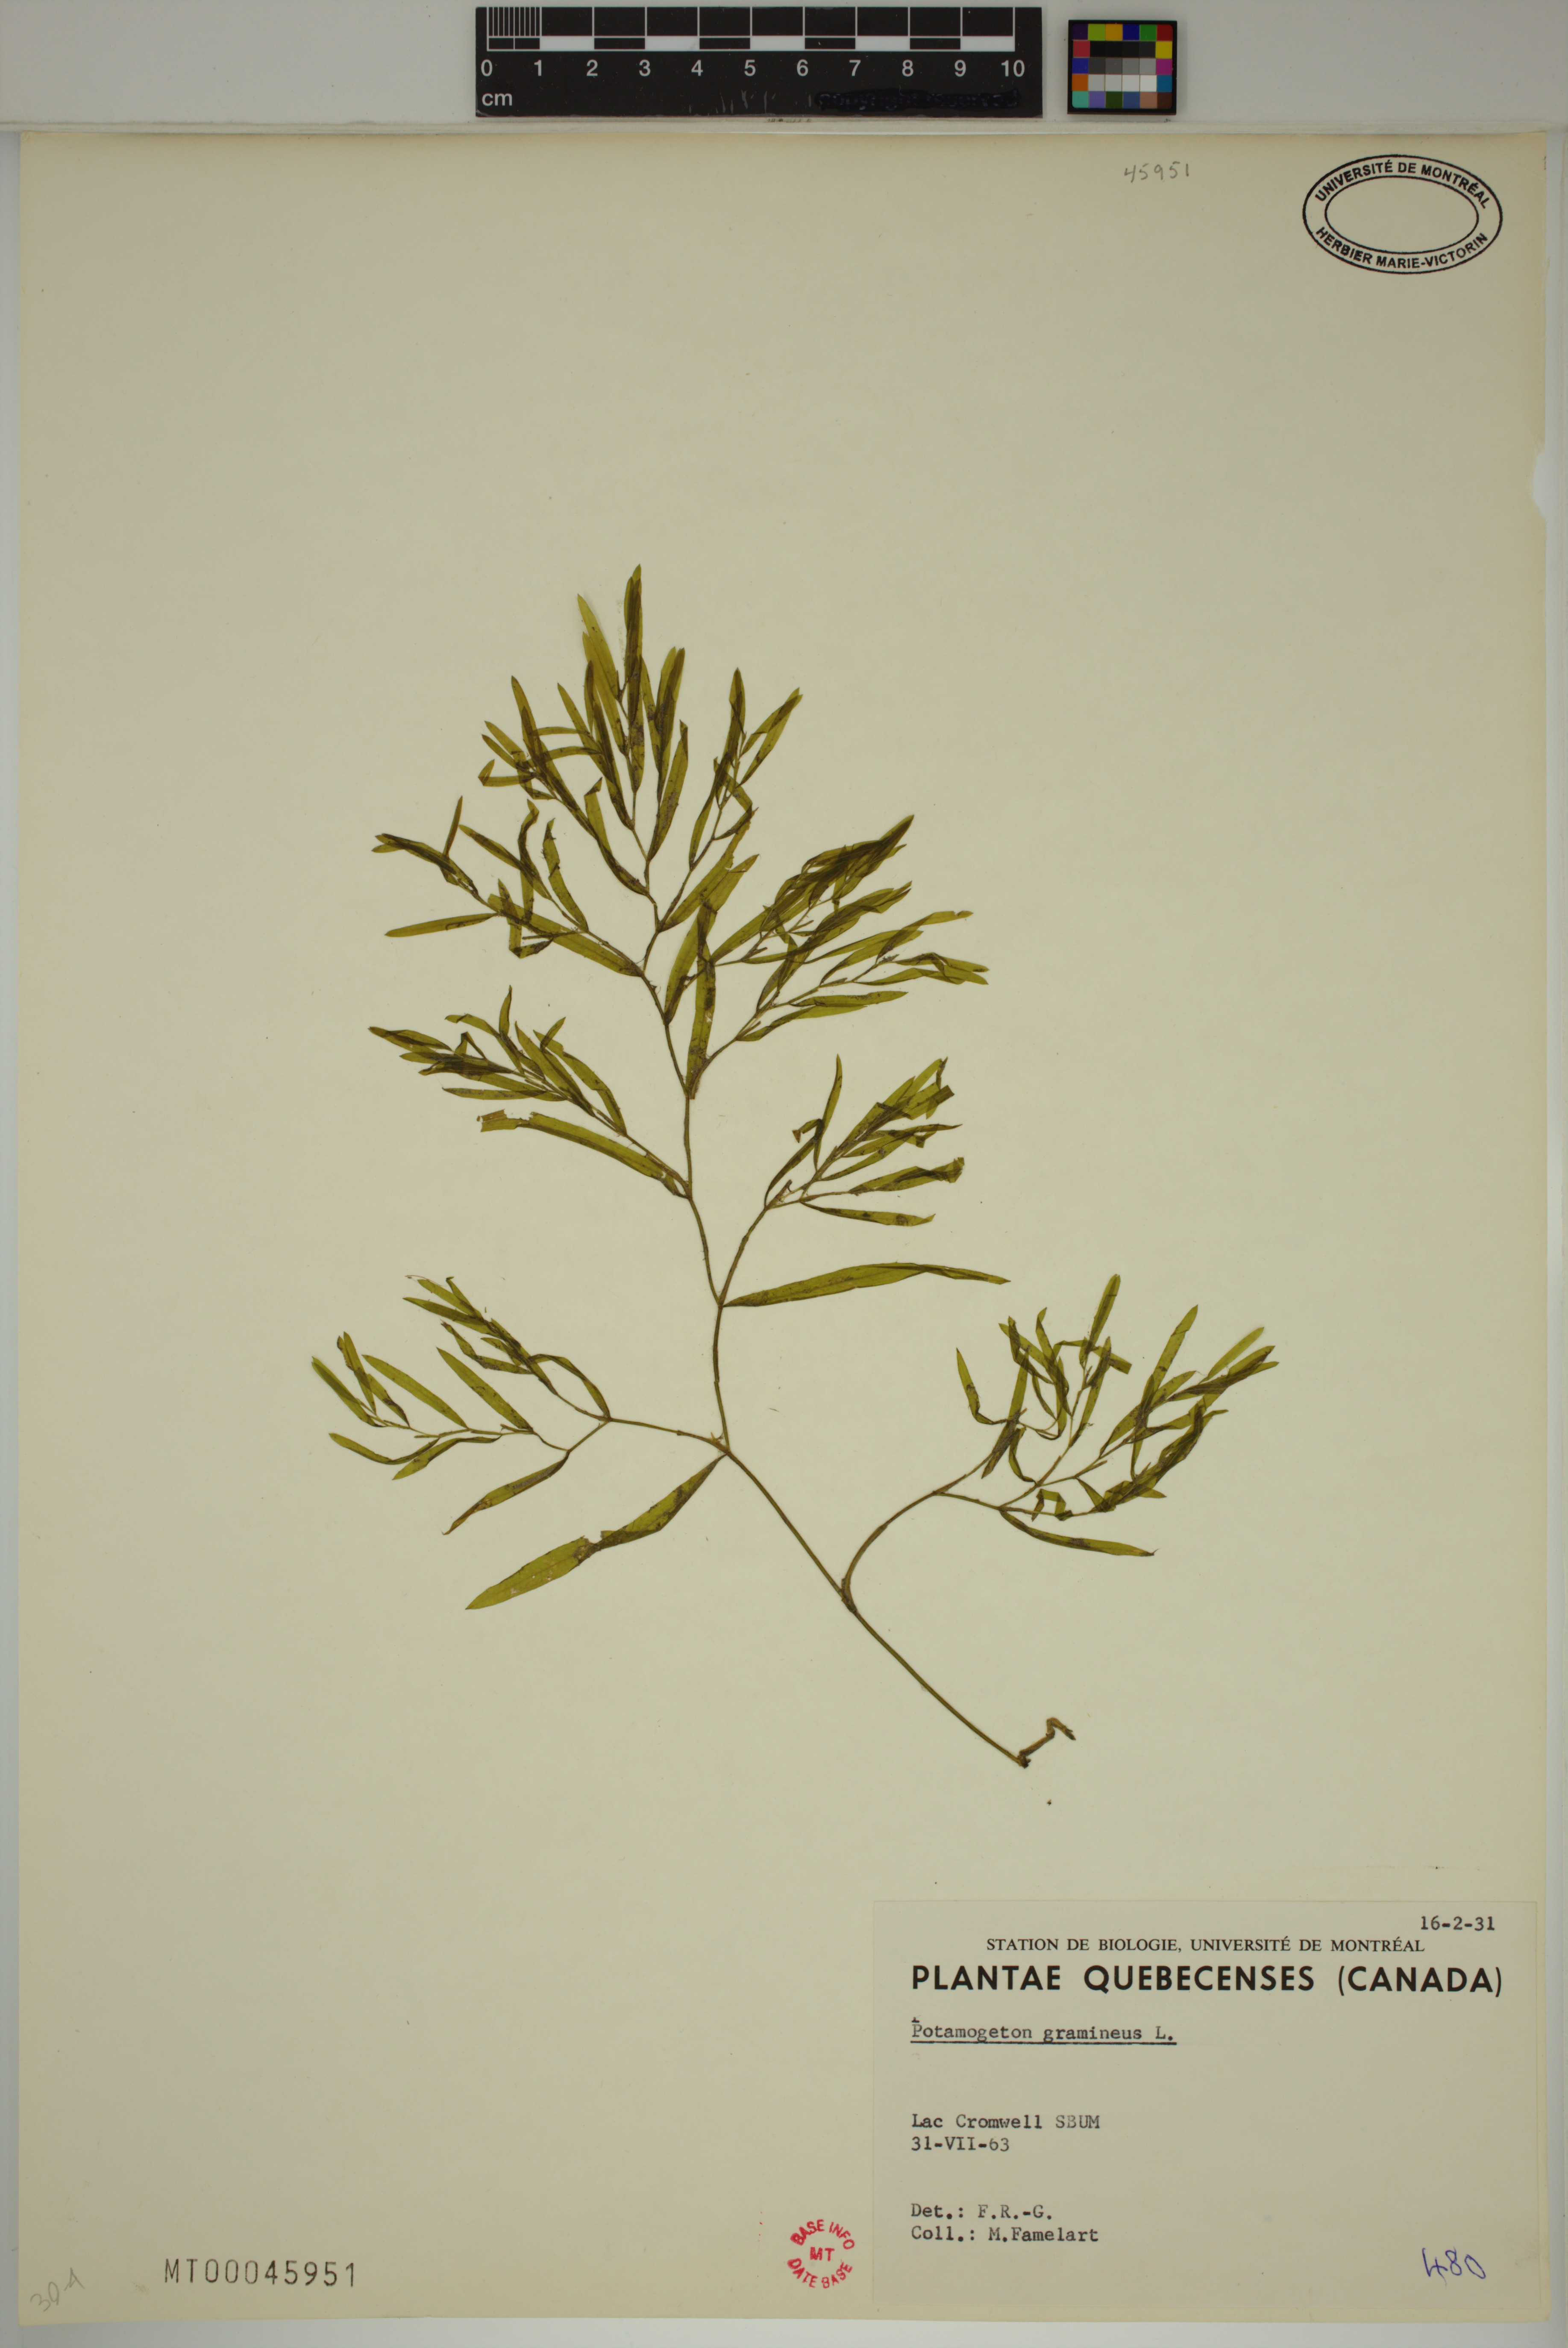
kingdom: Plantae
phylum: Tracheophyta
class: Liliopsida
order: Alismatales
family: Potamogetonaceae
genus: Potamogeton
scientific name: Potamogeton gramineus
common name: Various-leaved pondweed
